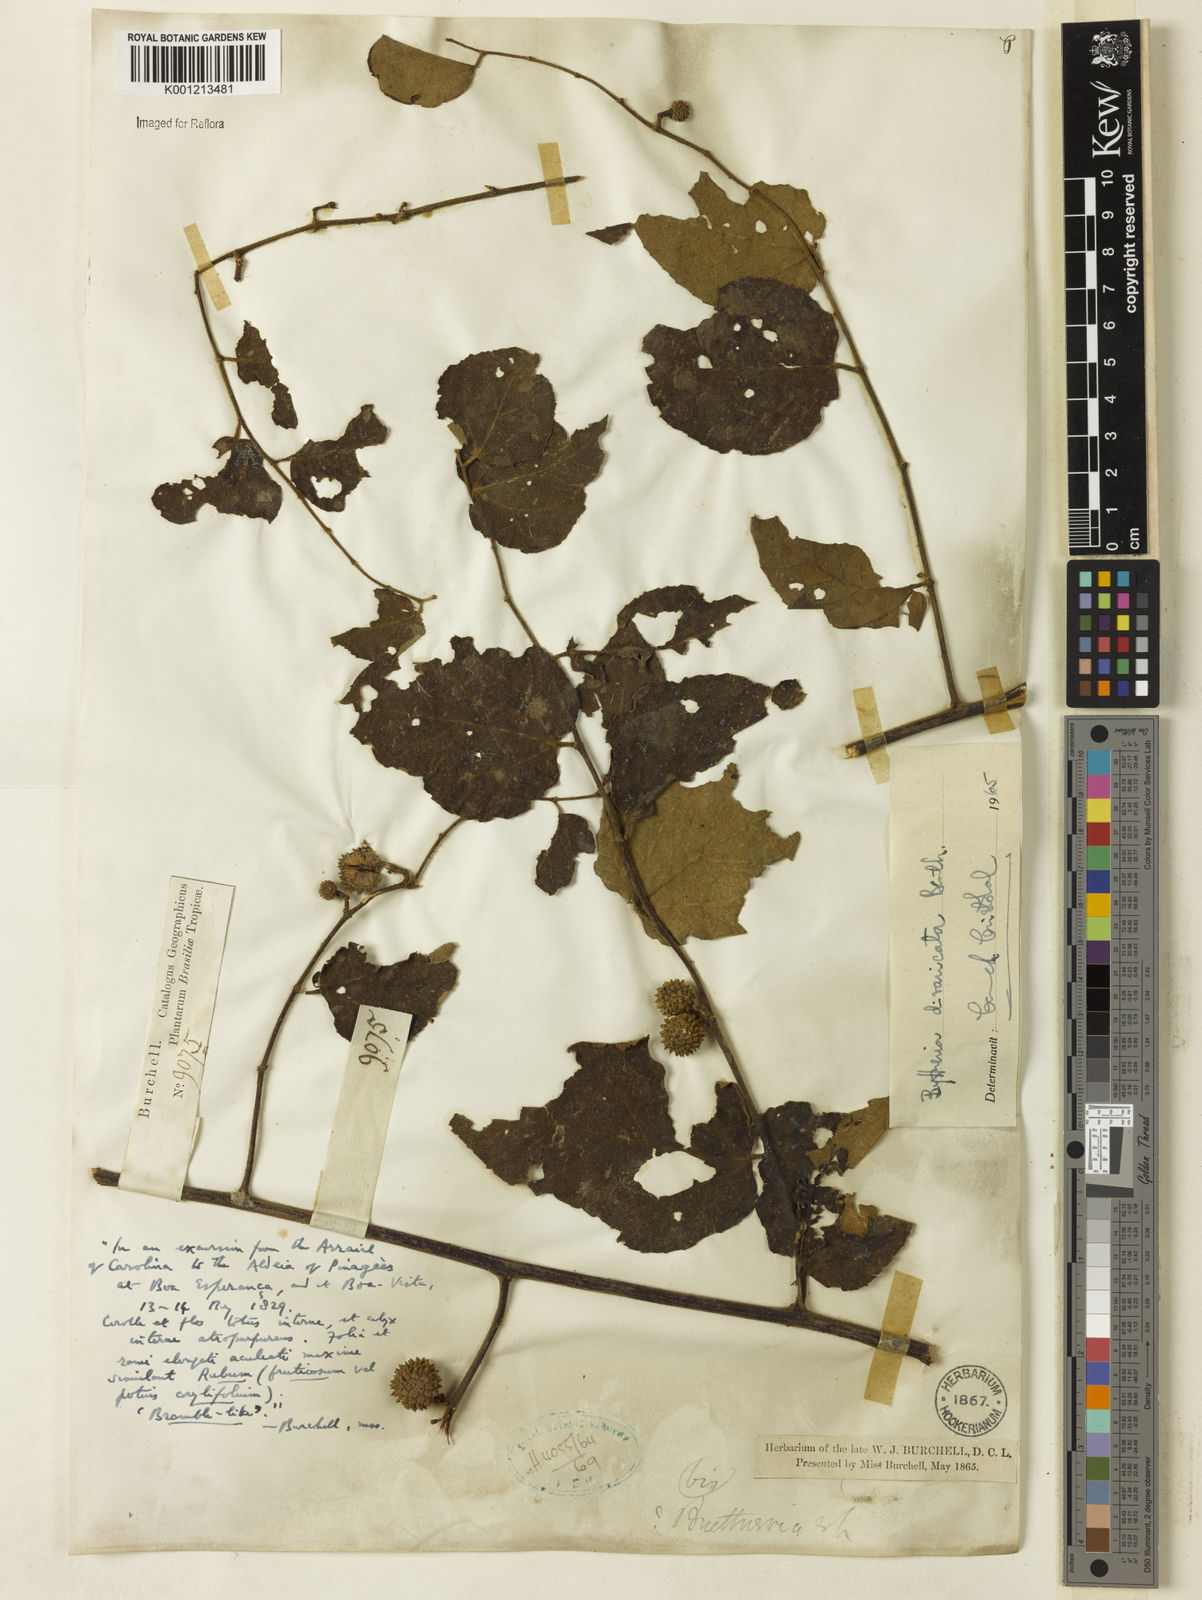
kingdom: Plantae
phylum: Tracheophyta
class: Magnoliopsida
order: Malvales
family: Malvaceae
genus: Byttneria
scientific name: Byttneria divaricata
